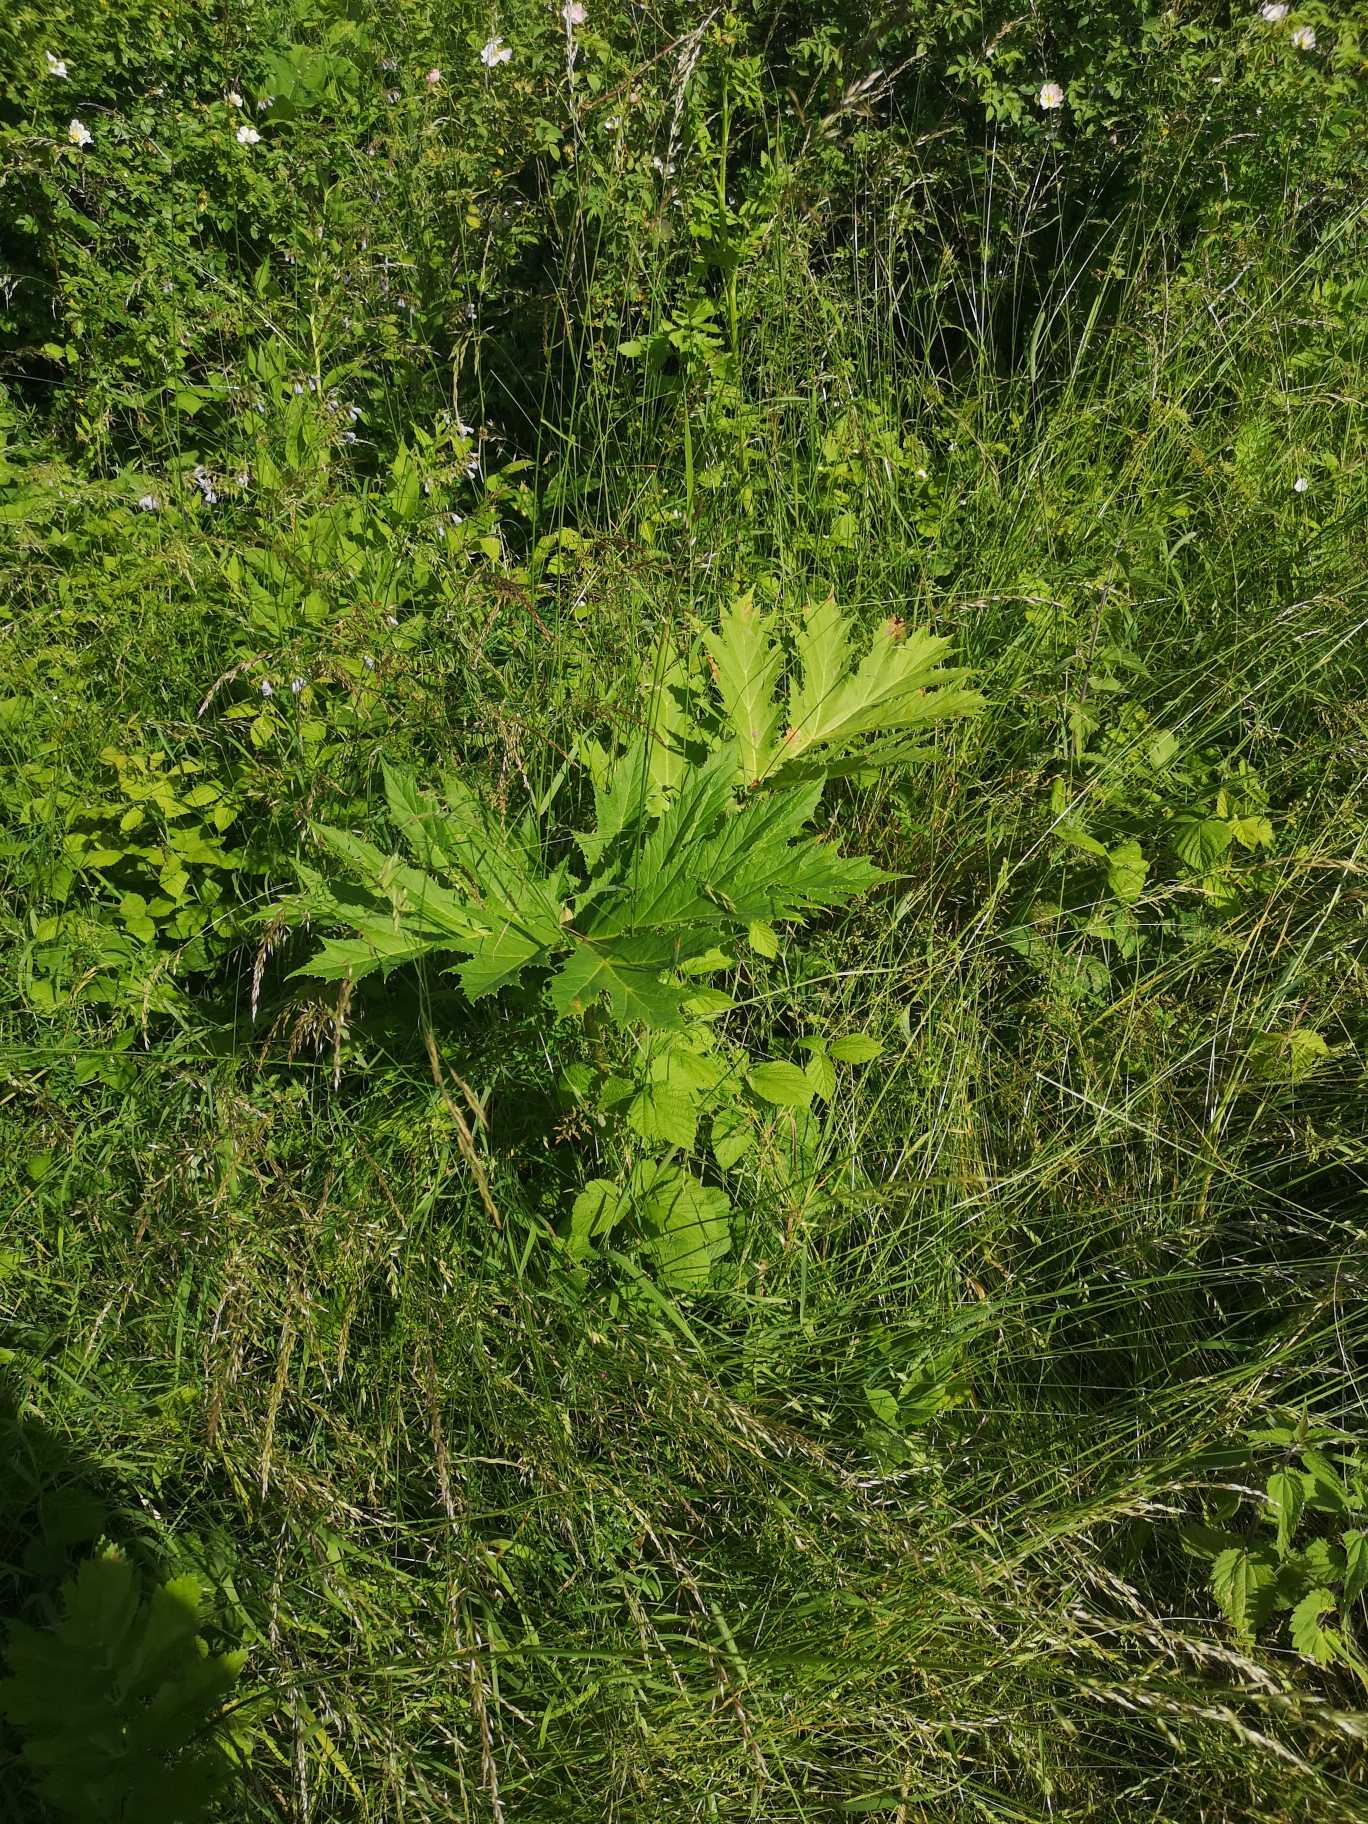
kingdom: Plantae
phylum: Tracheophyta
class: Magnoliopsida
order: Apiales
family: Apiaceae
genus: Heracleum
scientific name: Heracleum mantegazzianum
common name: Kæmpe-bjørneklo
